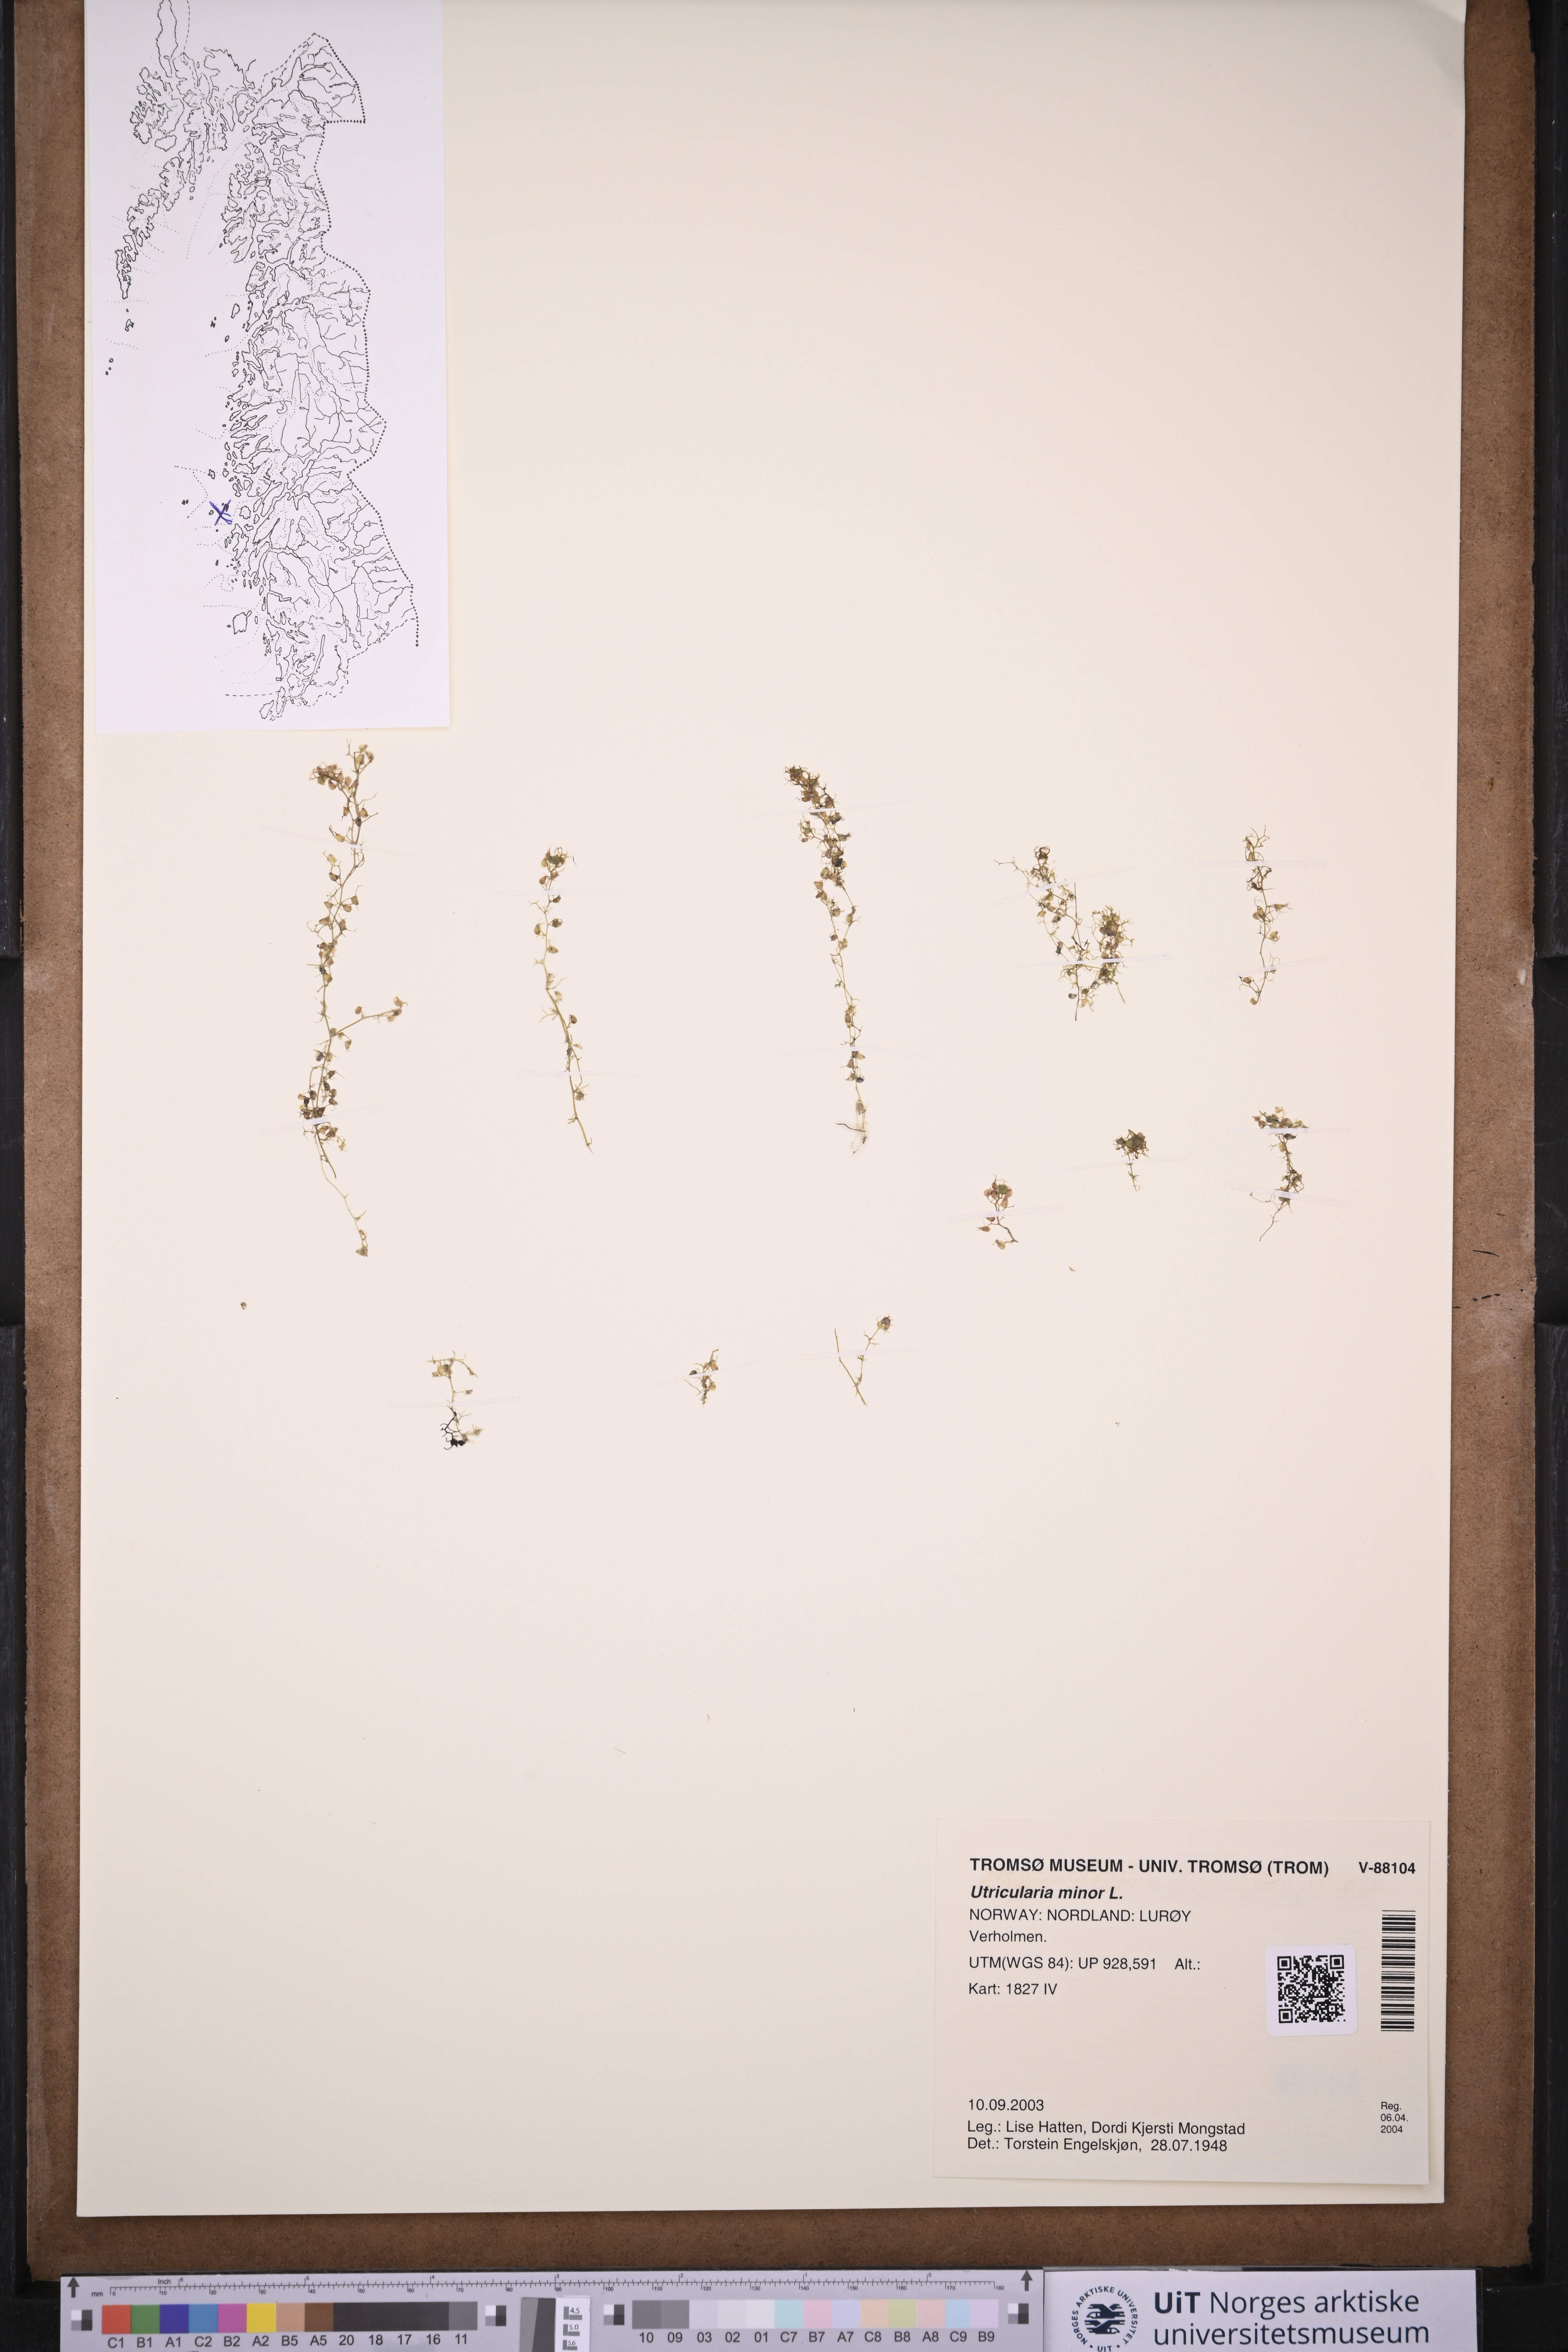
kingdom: Plantae
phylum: Tracheophyta
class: Magnoliopsida
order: Lamiales
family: Lentibulariaceae
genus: Utricularia
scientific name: Utricularia minor
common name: Lesser bladderwort
